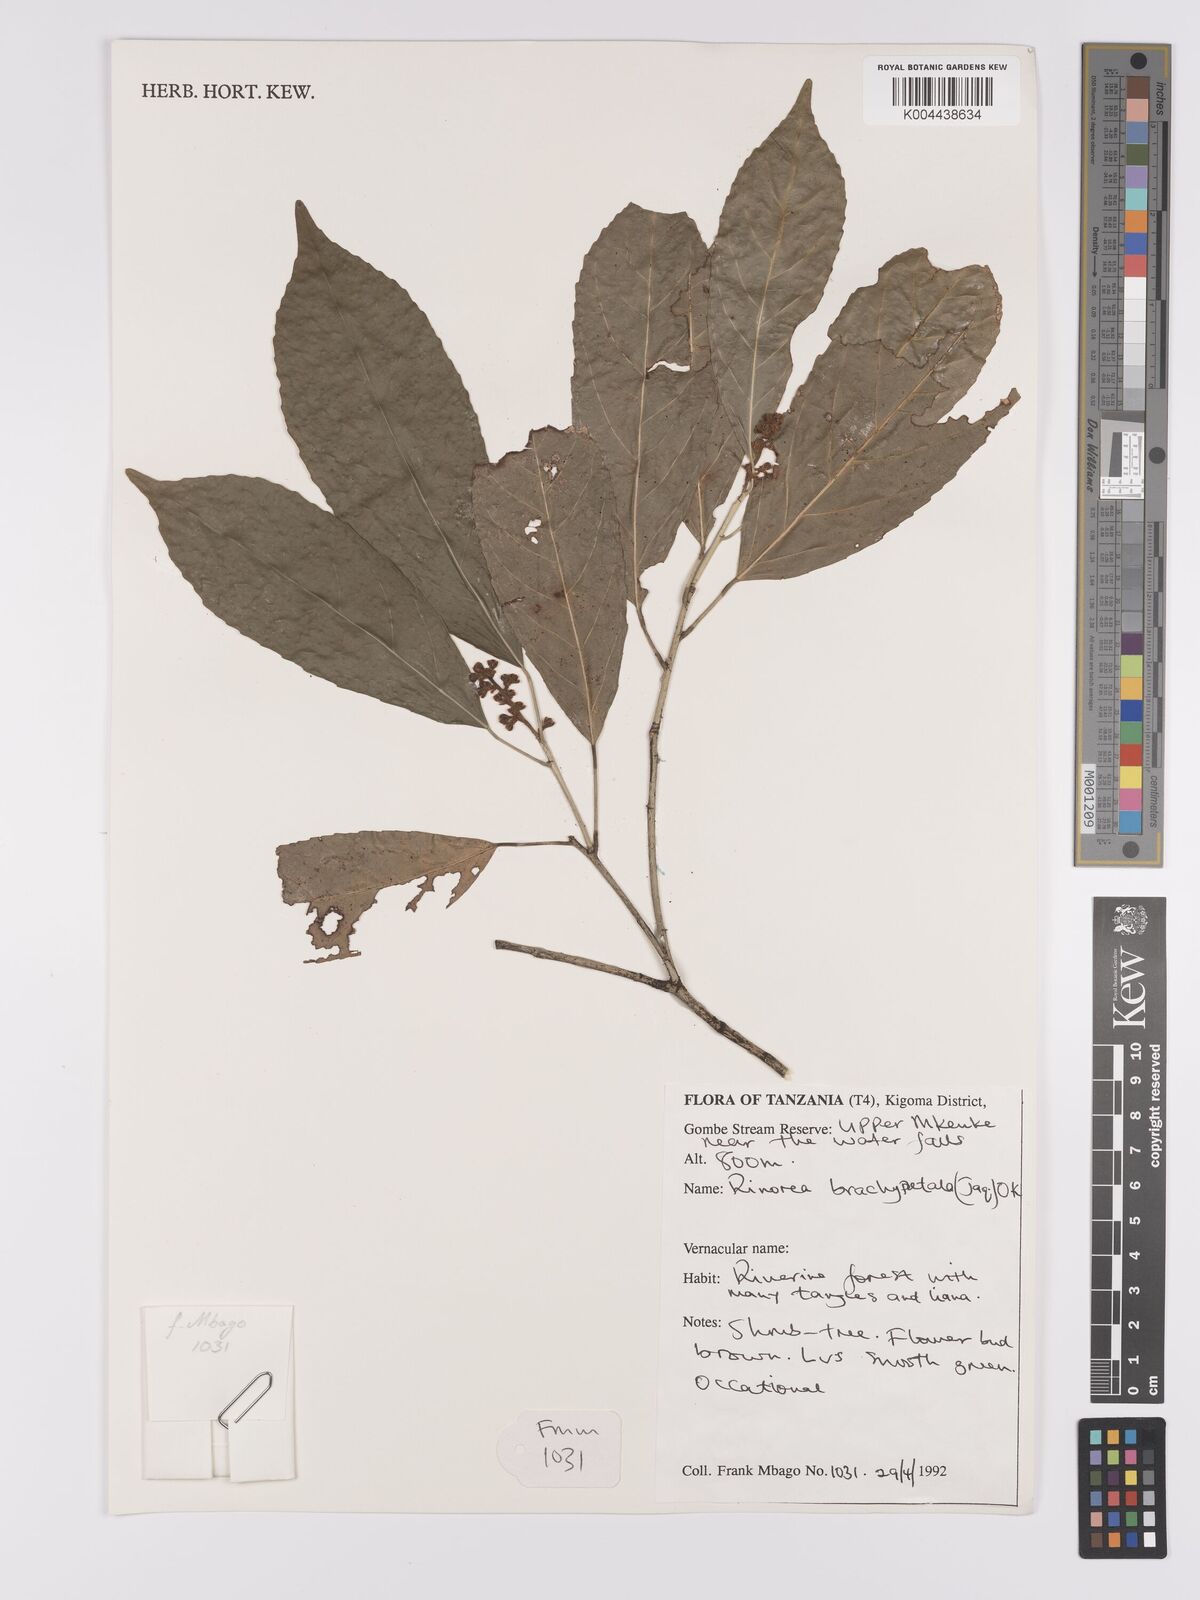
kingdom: Plantae
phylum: Tracheophyta
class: Magnoliopsida
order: Malpighiales
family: Violaceae
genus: Rinorea
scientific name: Rinorea brachypetala
